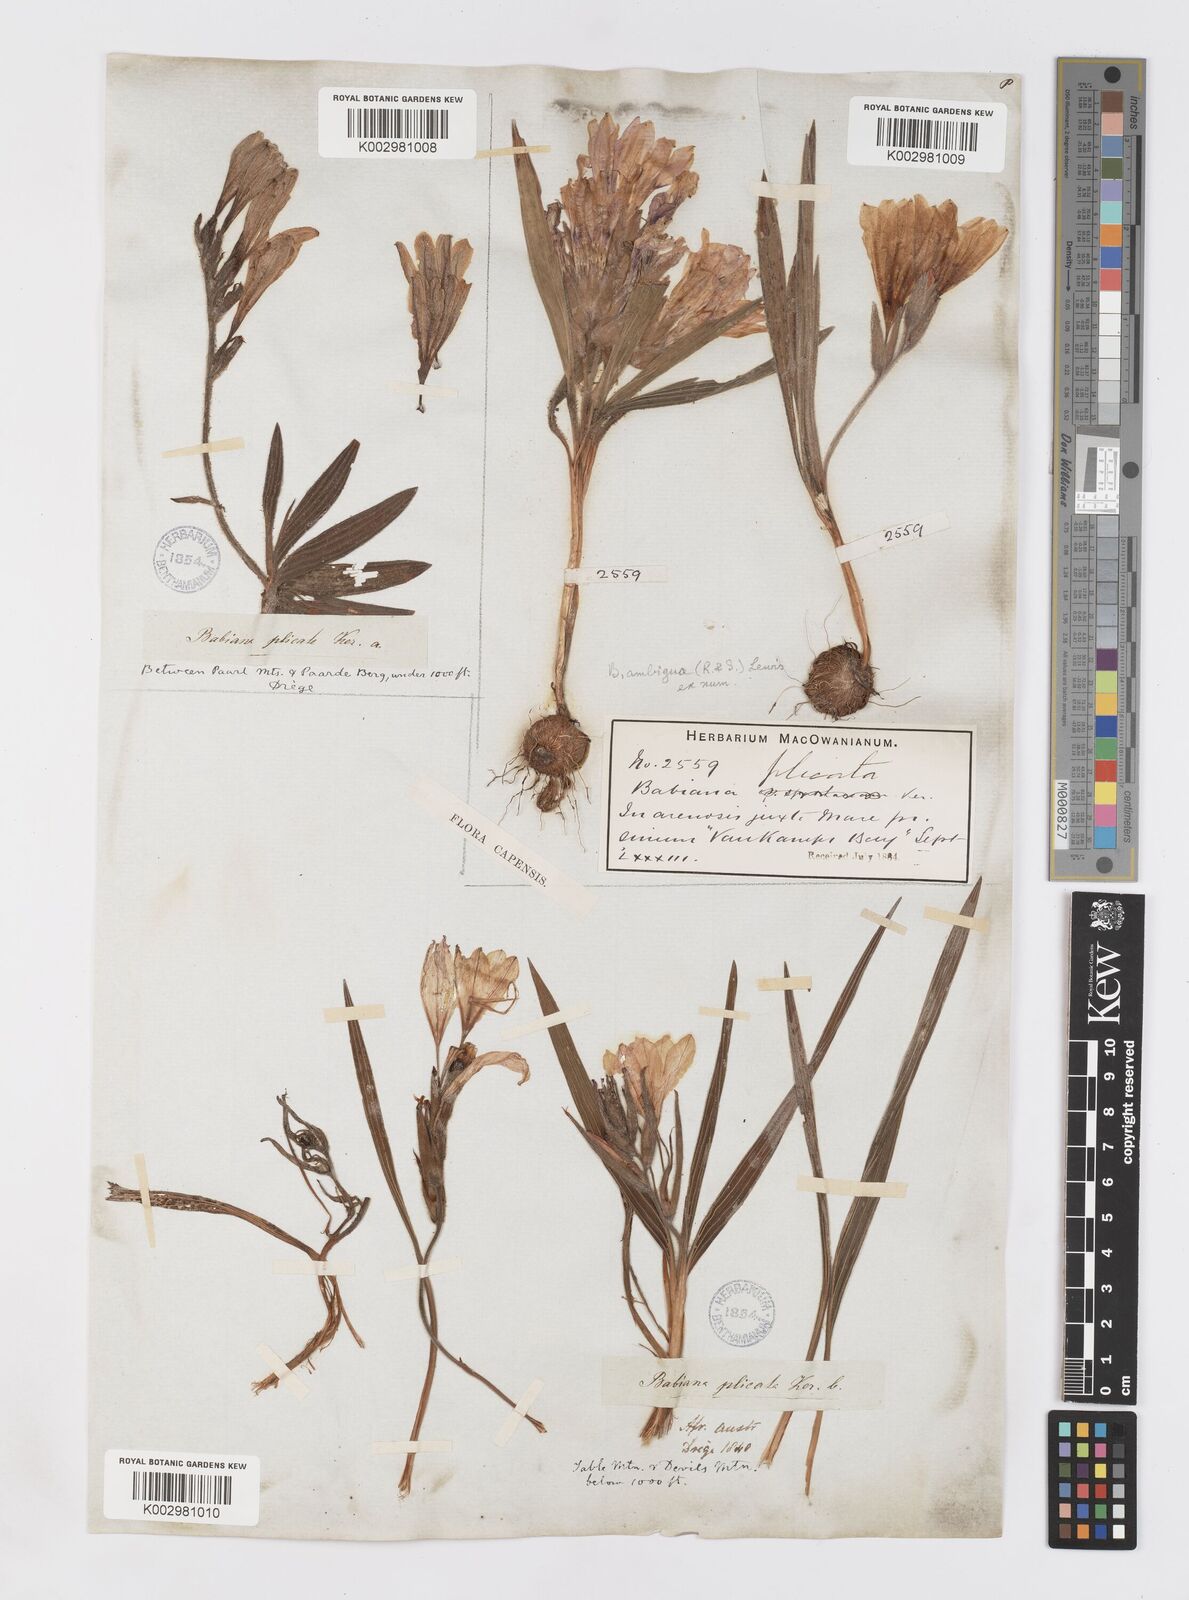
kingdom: Plantae
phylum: Tracheophyta
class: Liliopsida
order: Asparagales
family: Iridaceae
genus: Babiana
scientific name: Babiana ambigua
